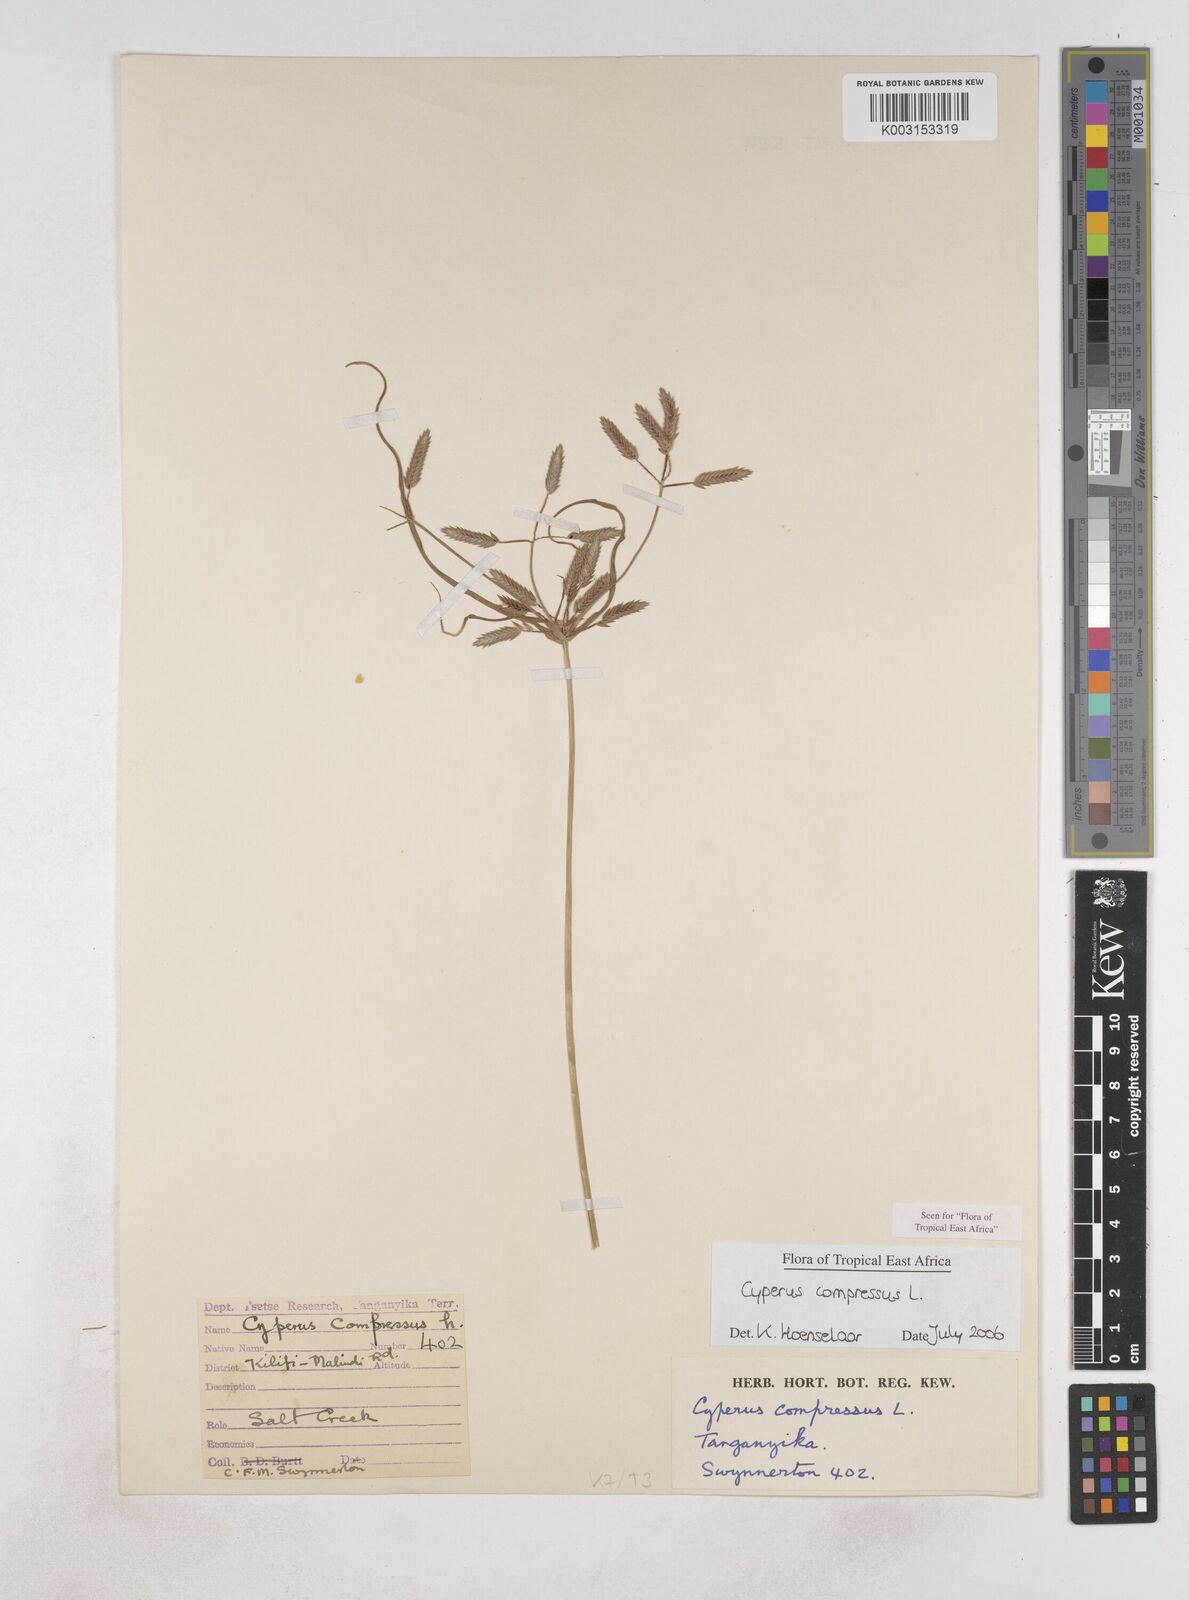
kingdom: Plantae
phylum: Tracheophyta
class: Liliopsida
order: Poales
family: Cyperaceae
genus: Cyperus
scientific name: Cyperus compressus
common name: Poorland flatsedge
